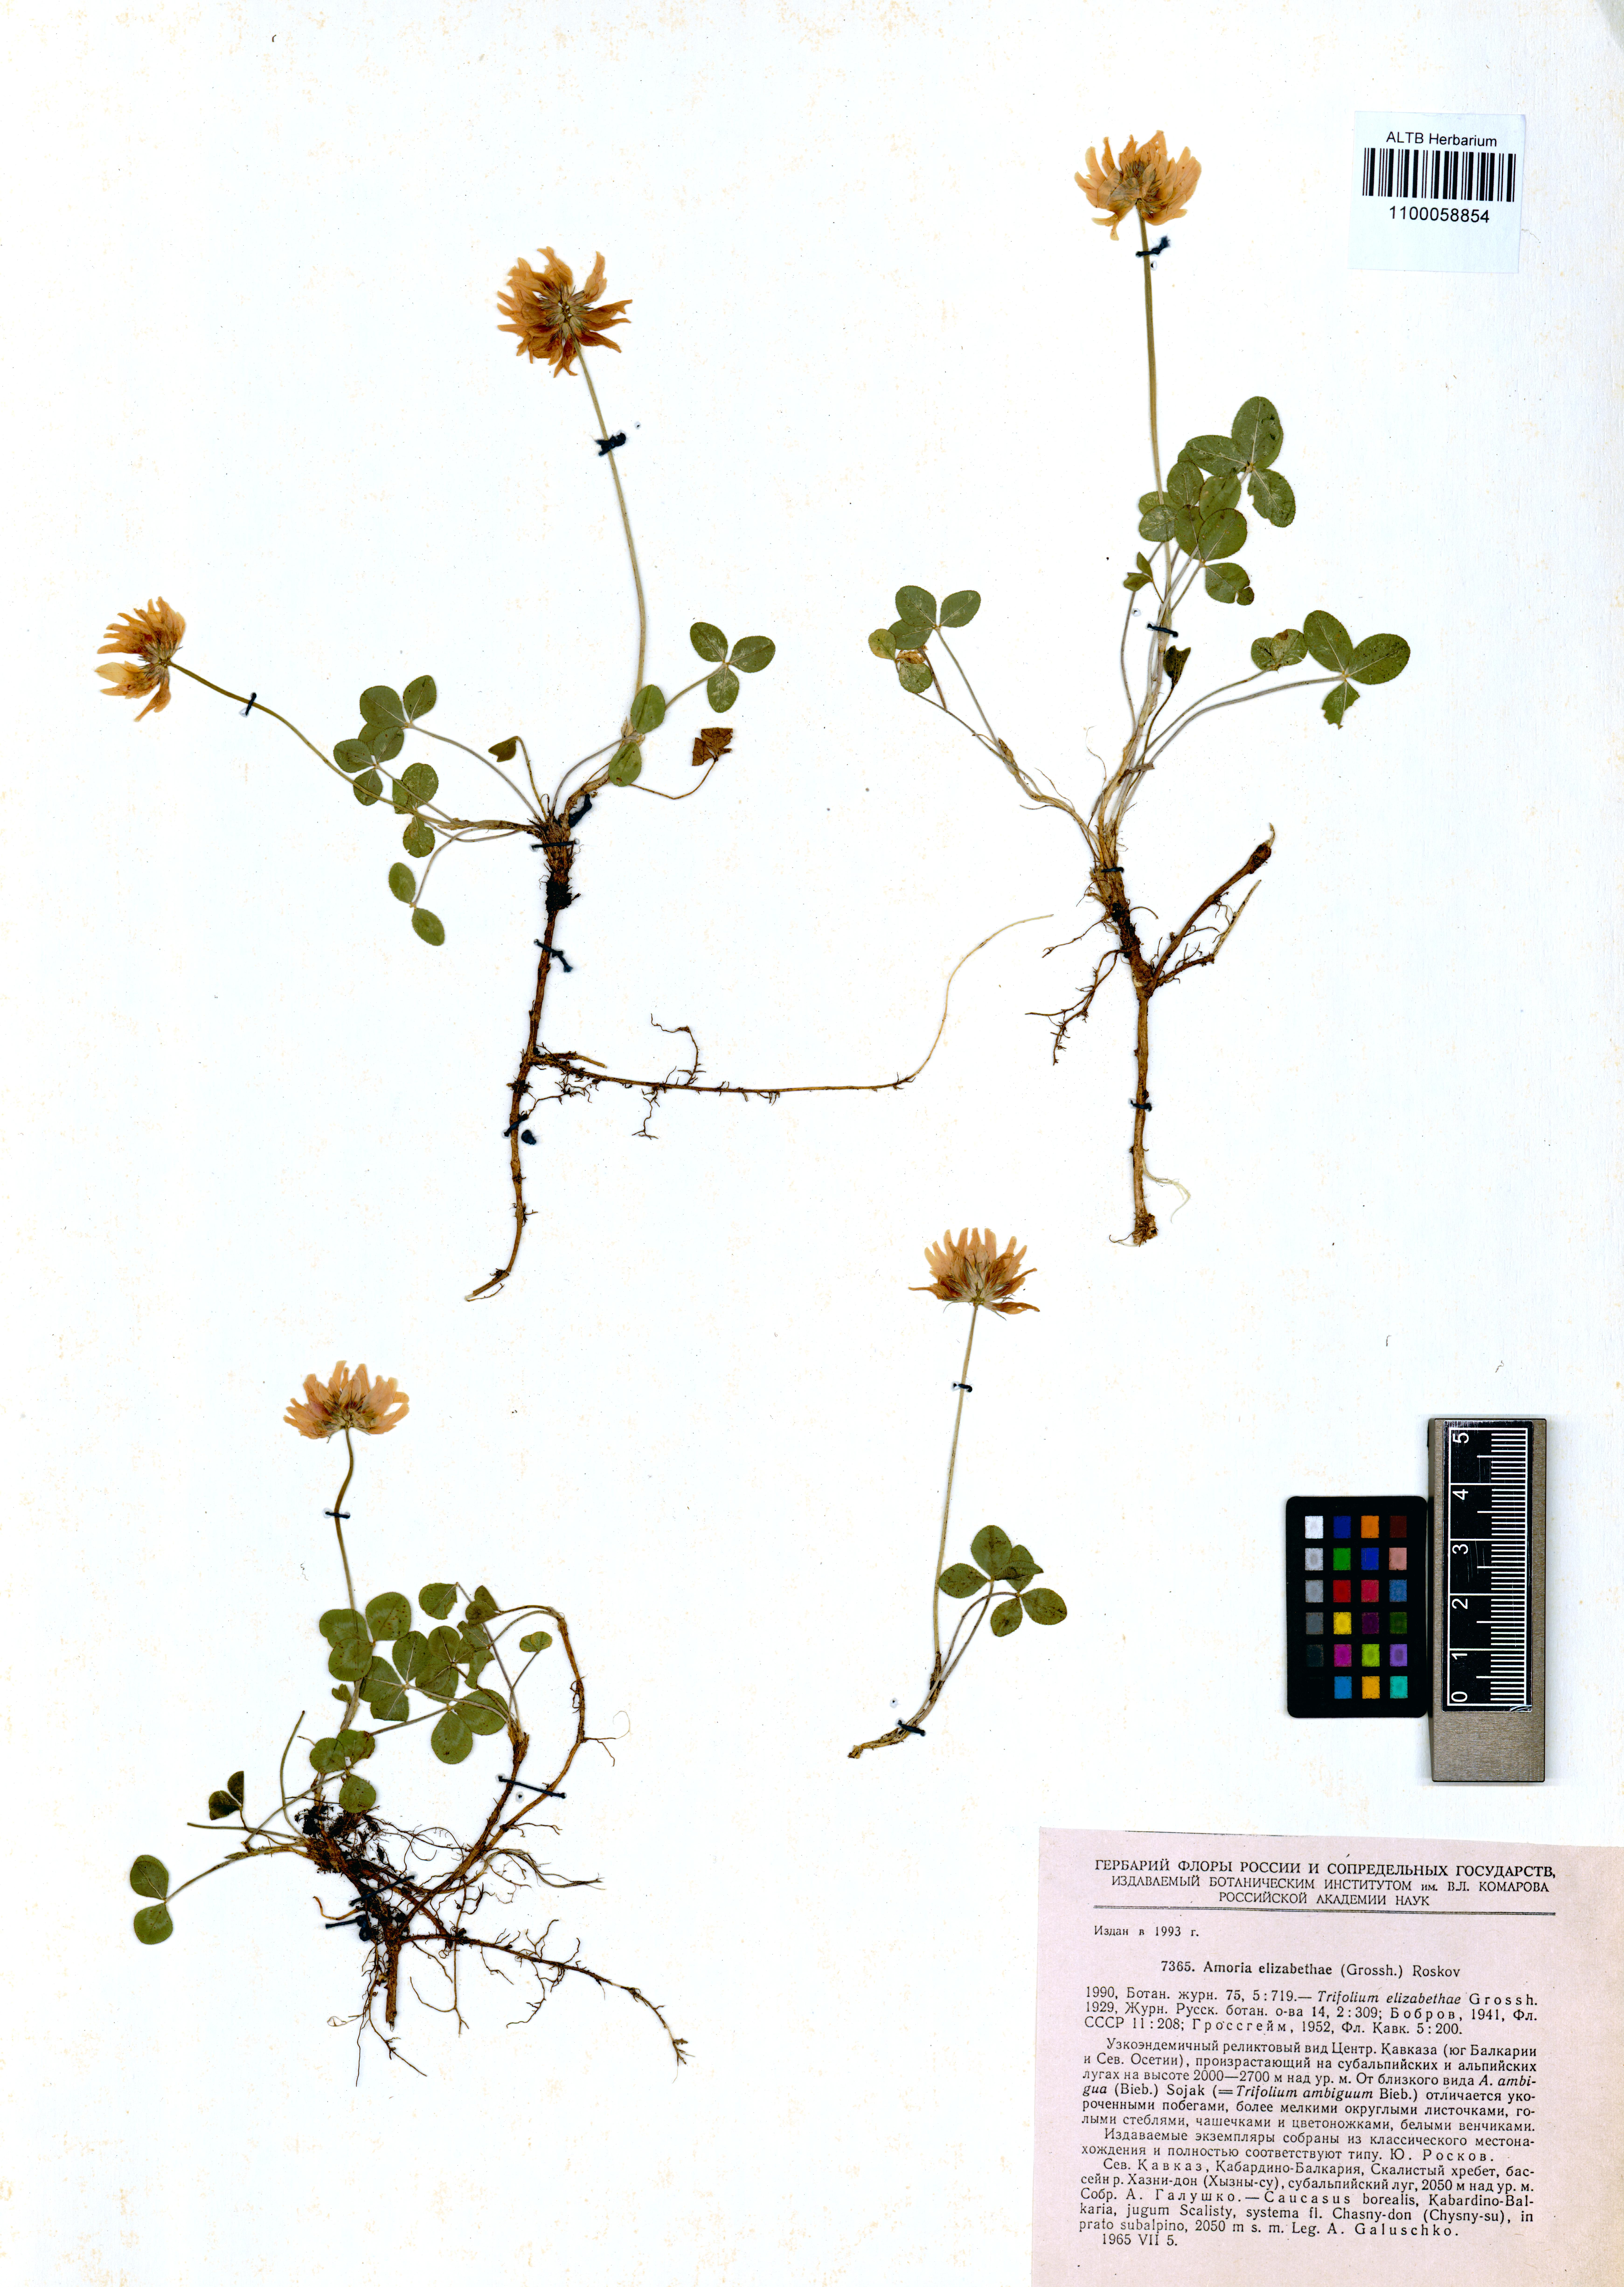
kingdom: Plantae
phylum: Tracheophyta
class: Magnoliopsida
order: Fabales
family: Fabaceae
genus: Trifolium
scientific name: Trifolium elizabethae
